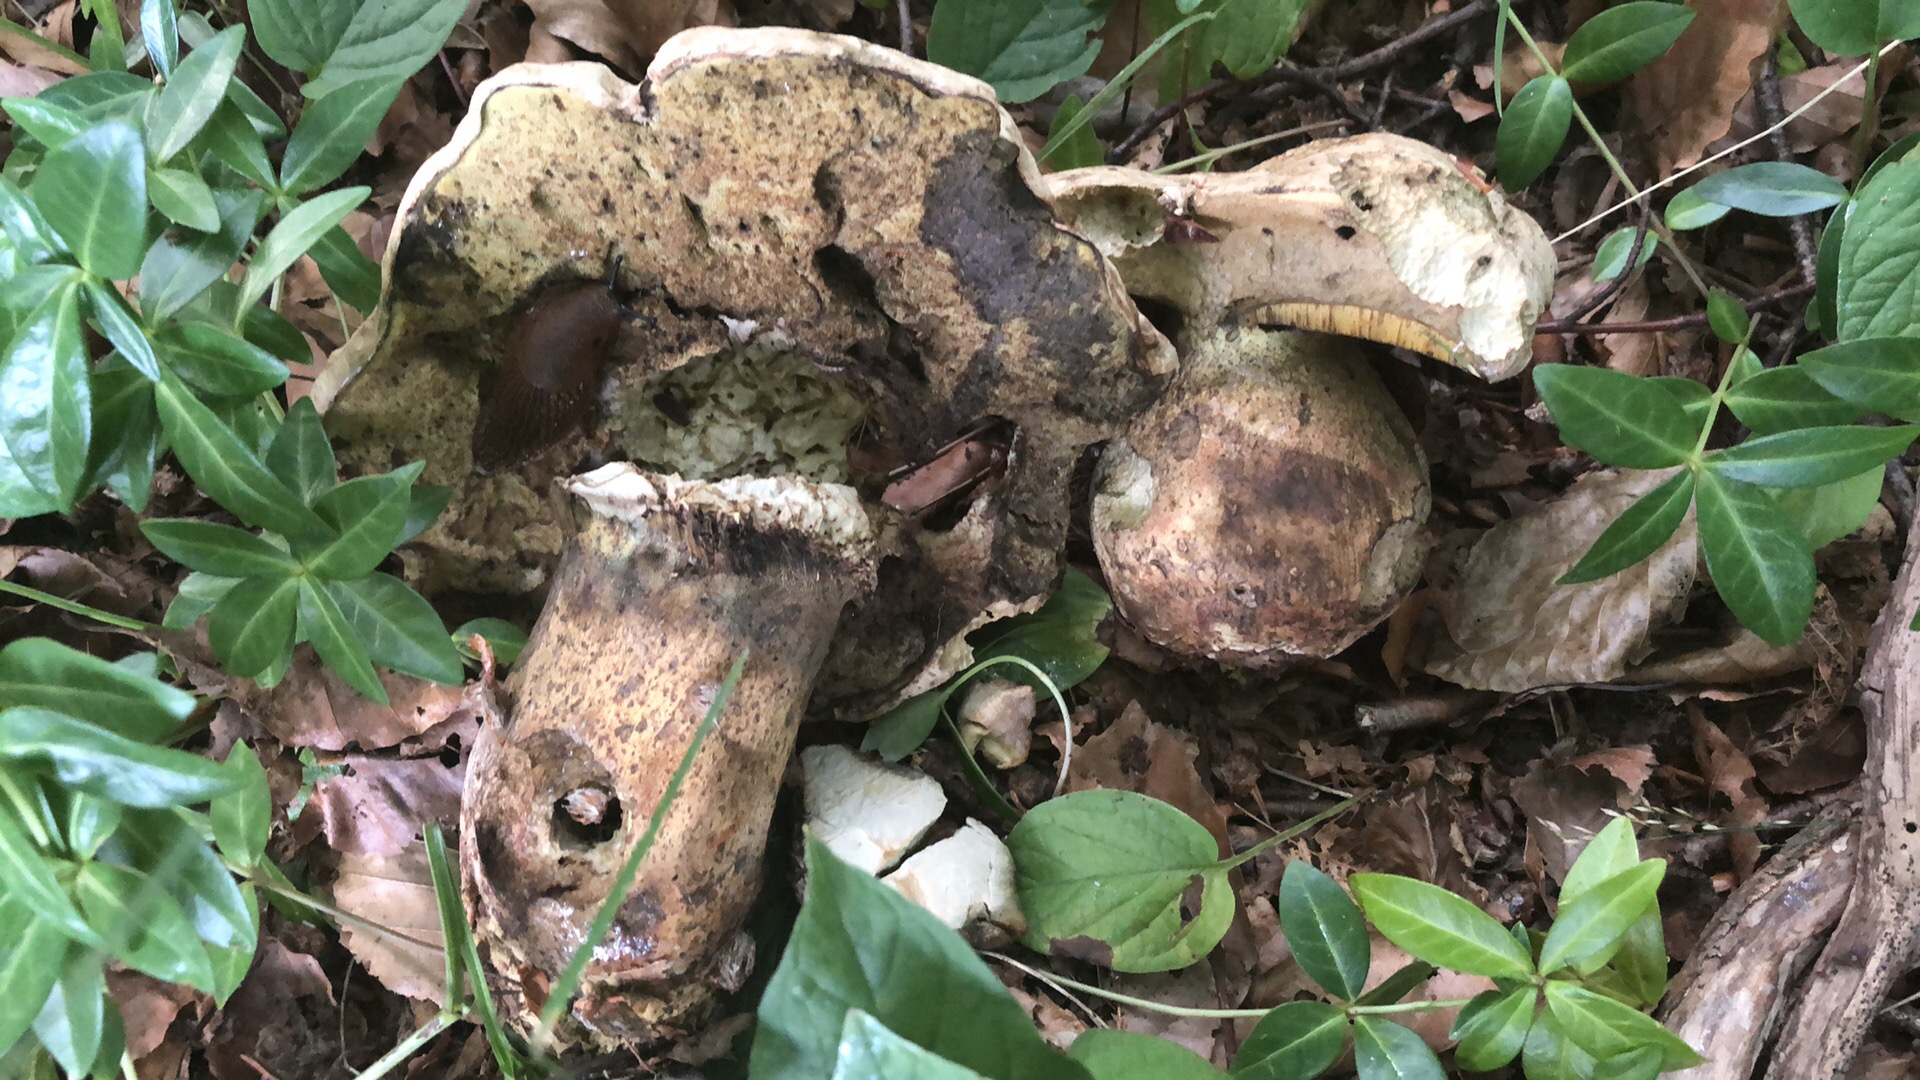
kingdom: Fungi
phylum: Basidiomycota
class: Agaricomycetes
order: Boletales
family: Boletaceae
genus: Caloboletus
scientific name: Caloboletus radicans
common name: rod-rørhat
